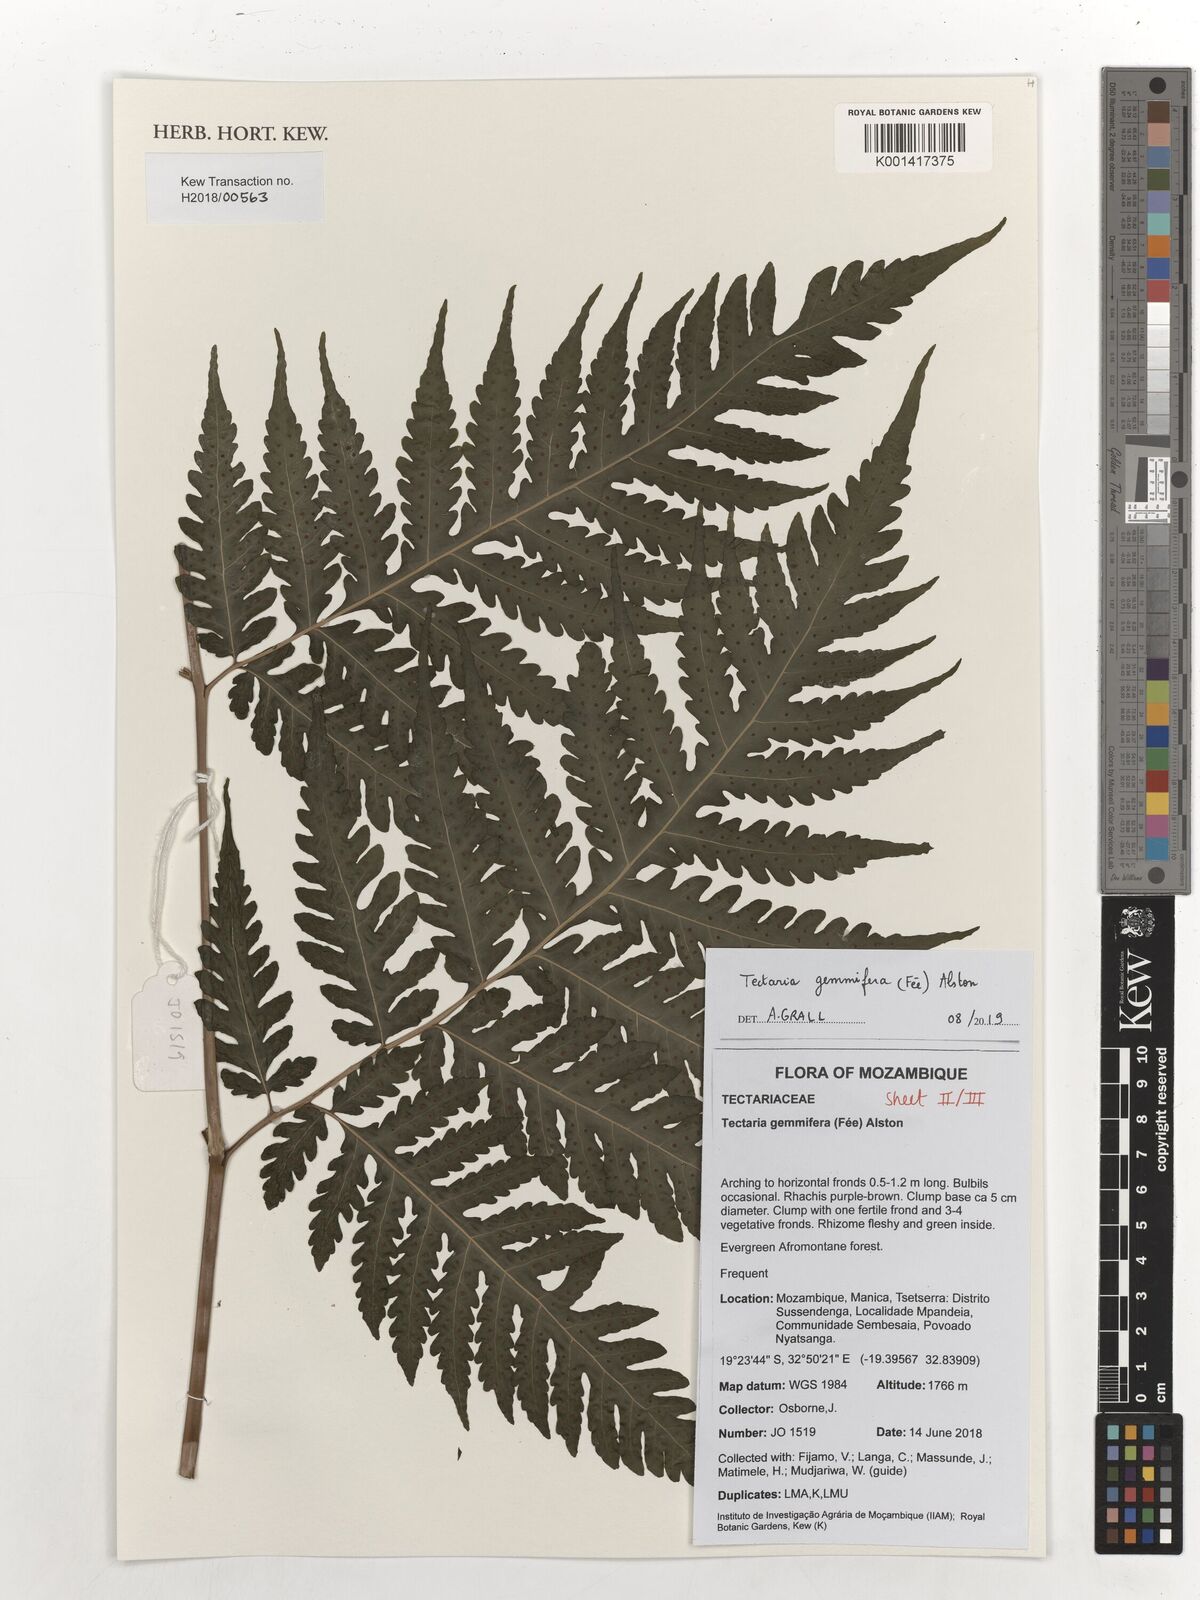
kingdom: Plantae
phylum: Tracheophyta
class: Polypodiopsida
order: Polypodiales
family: Tectariaceae
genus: Tectaria
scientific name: Tectaria gemmifera
